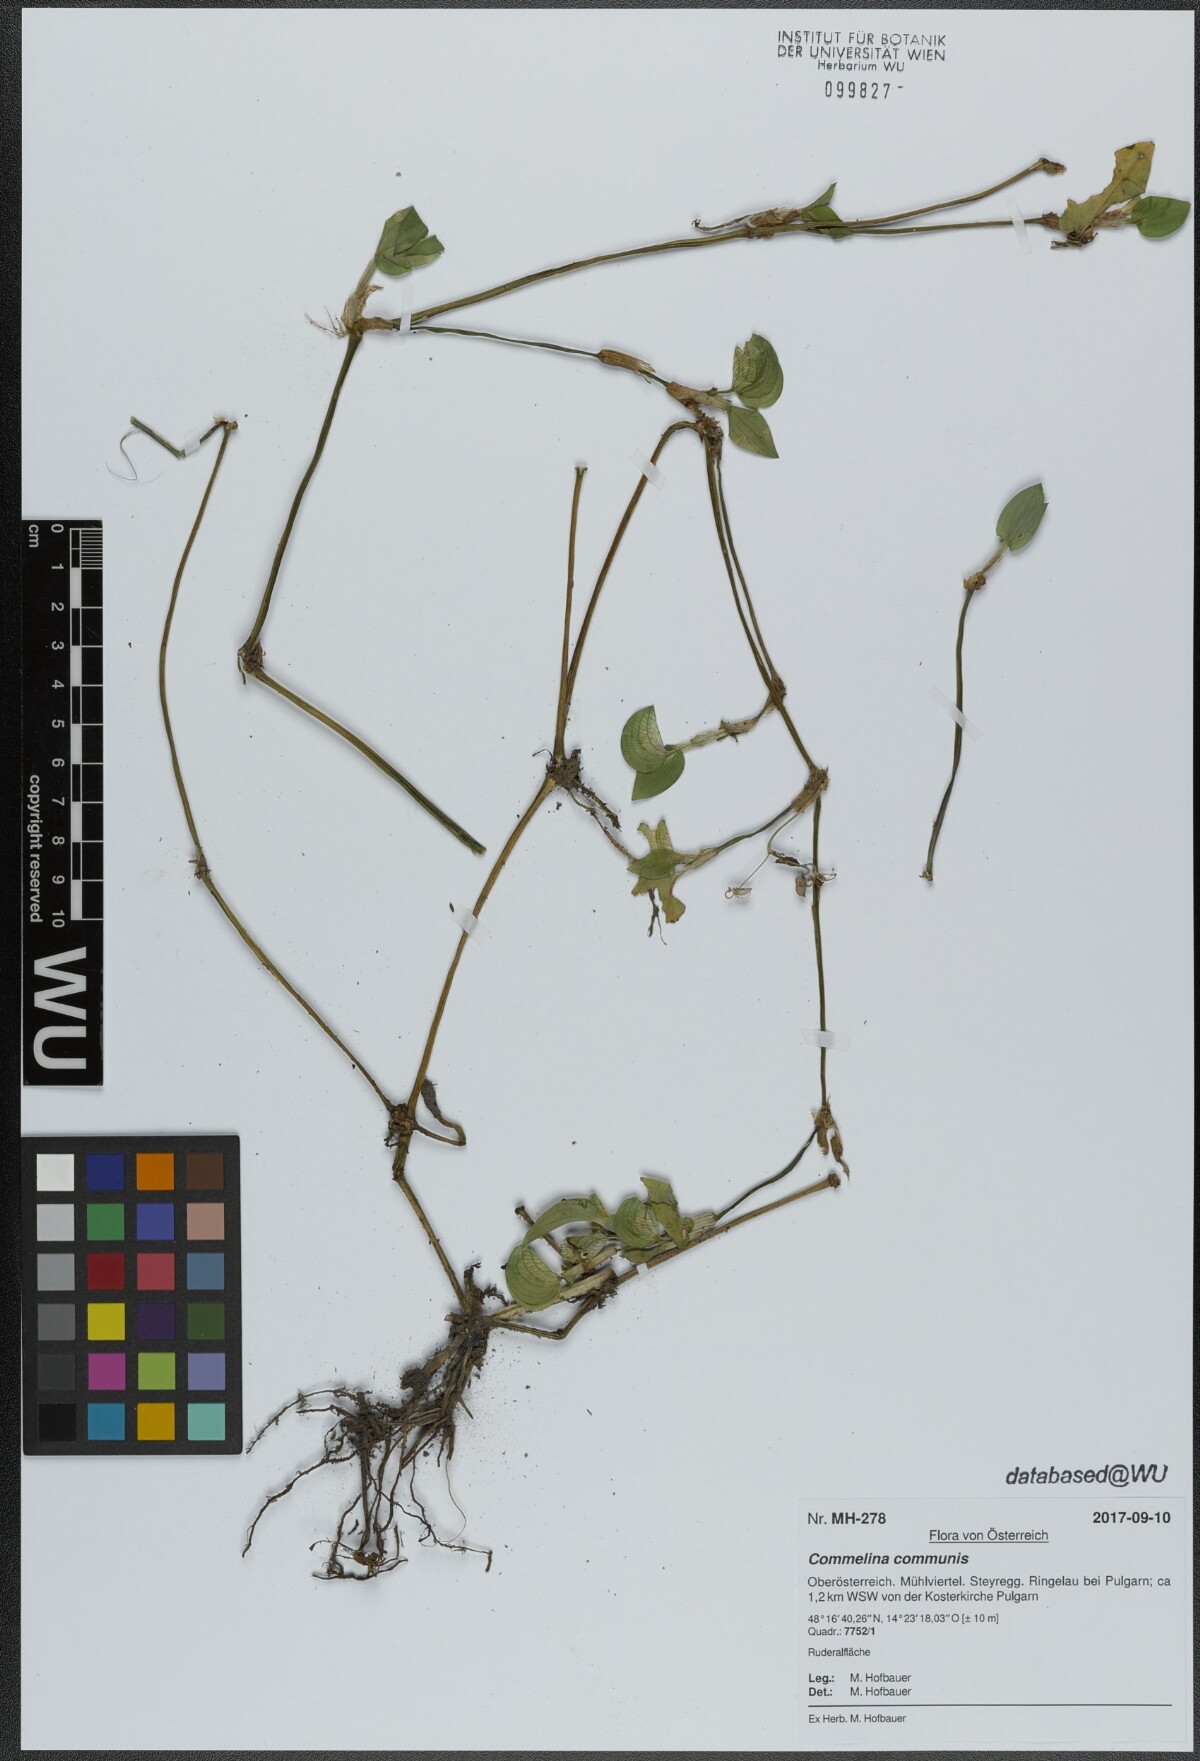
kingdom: Plantae
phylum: Tracheophyta
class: Liliopsida
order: Commelinales
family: Commelinaceae
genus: Commelina
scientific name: Commelina communis
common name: Asiatic dayflower
